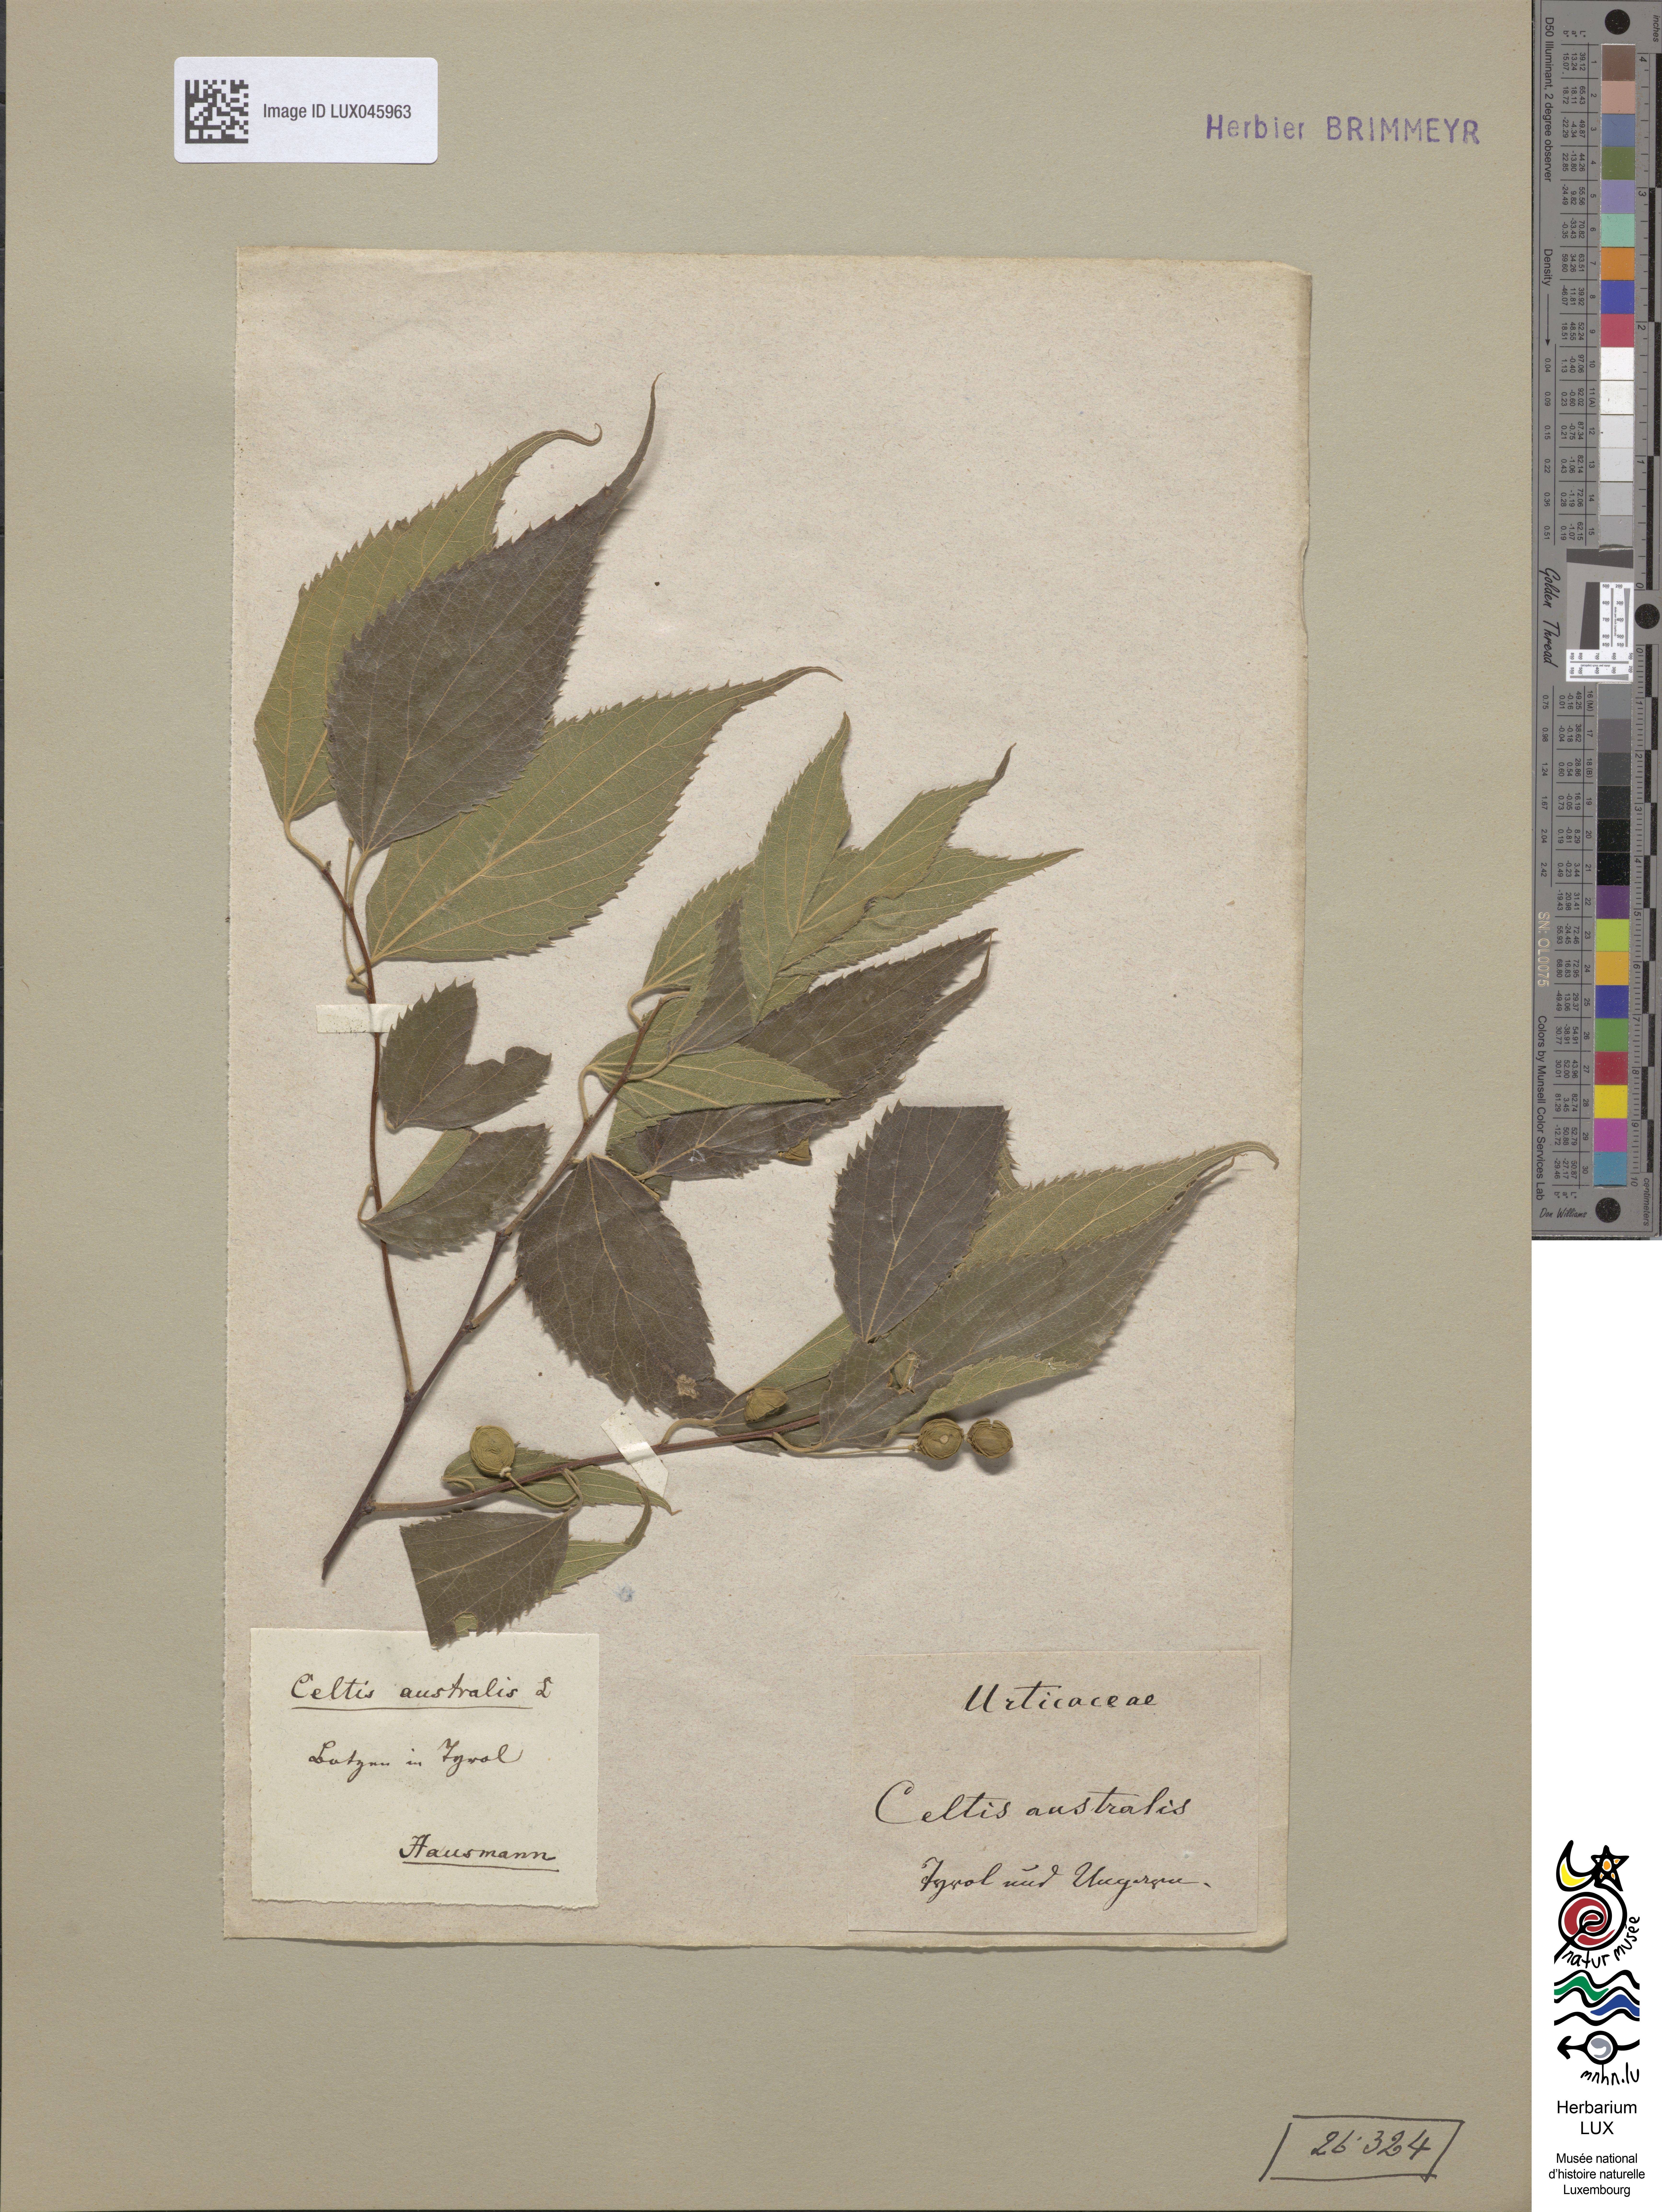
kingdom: Plantae
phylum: Tracheophyta
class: Magnoliopsida
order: Rosales
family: Cannabaceae
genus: Celtis
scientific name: Celtis australis
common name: European hackberry
